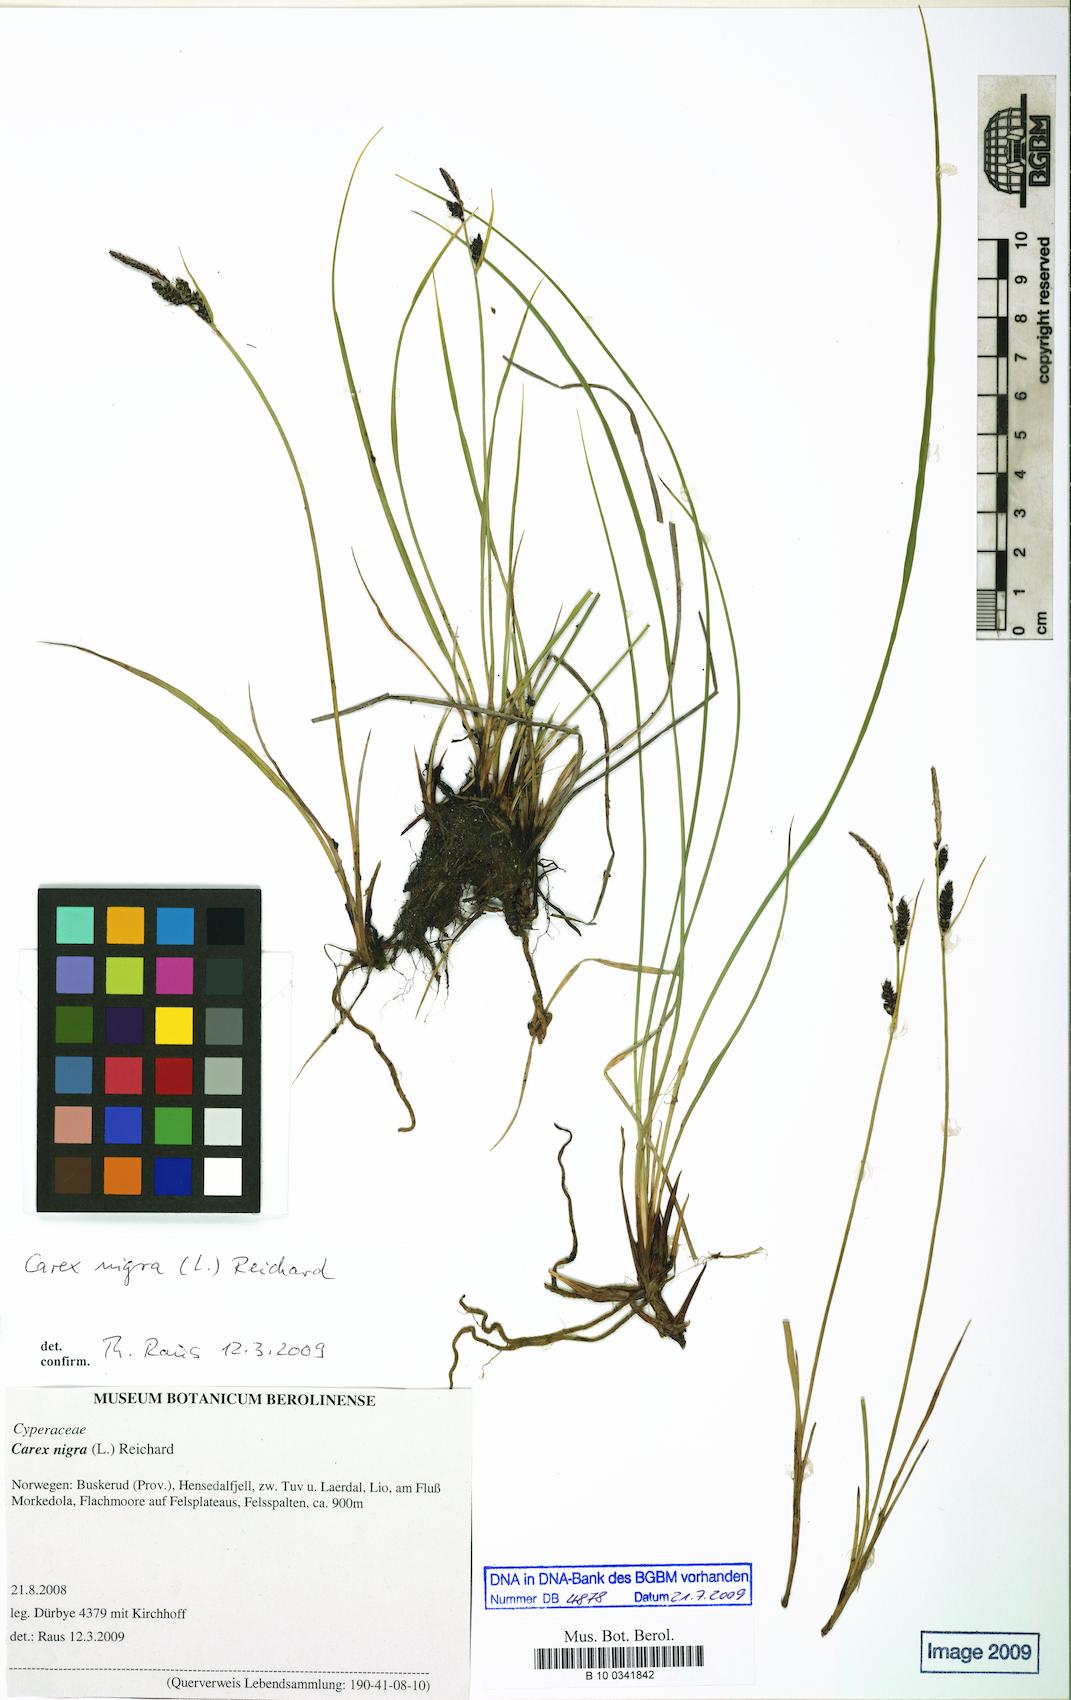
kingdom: Plantae
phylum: Tracheophyta
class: Liliopsida
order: Poales
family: Cyperaceae
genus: Carex
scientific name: Carex nigra
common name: Common sedge
